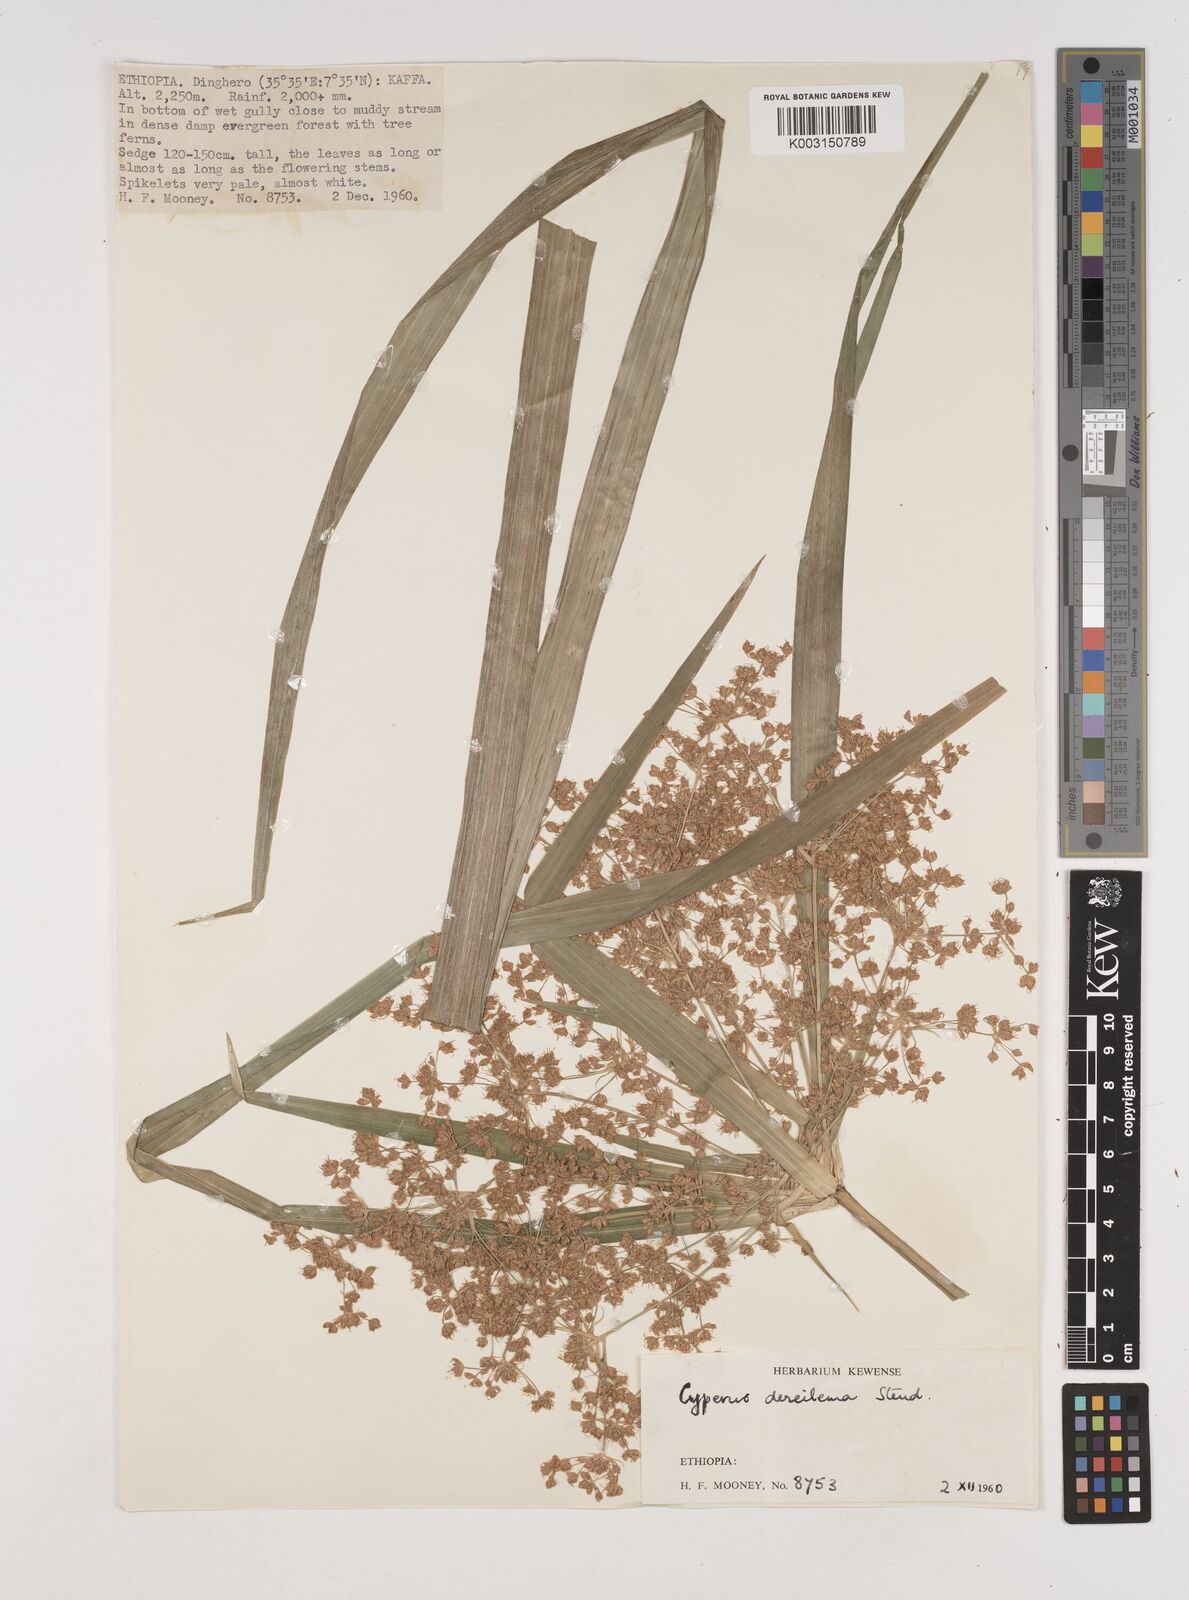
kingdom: Plantae
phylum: Tracheophyta
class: Liliopsida
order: Poales
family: Cyperaceae
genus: Cyperus
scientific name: Cyperus derreilema
